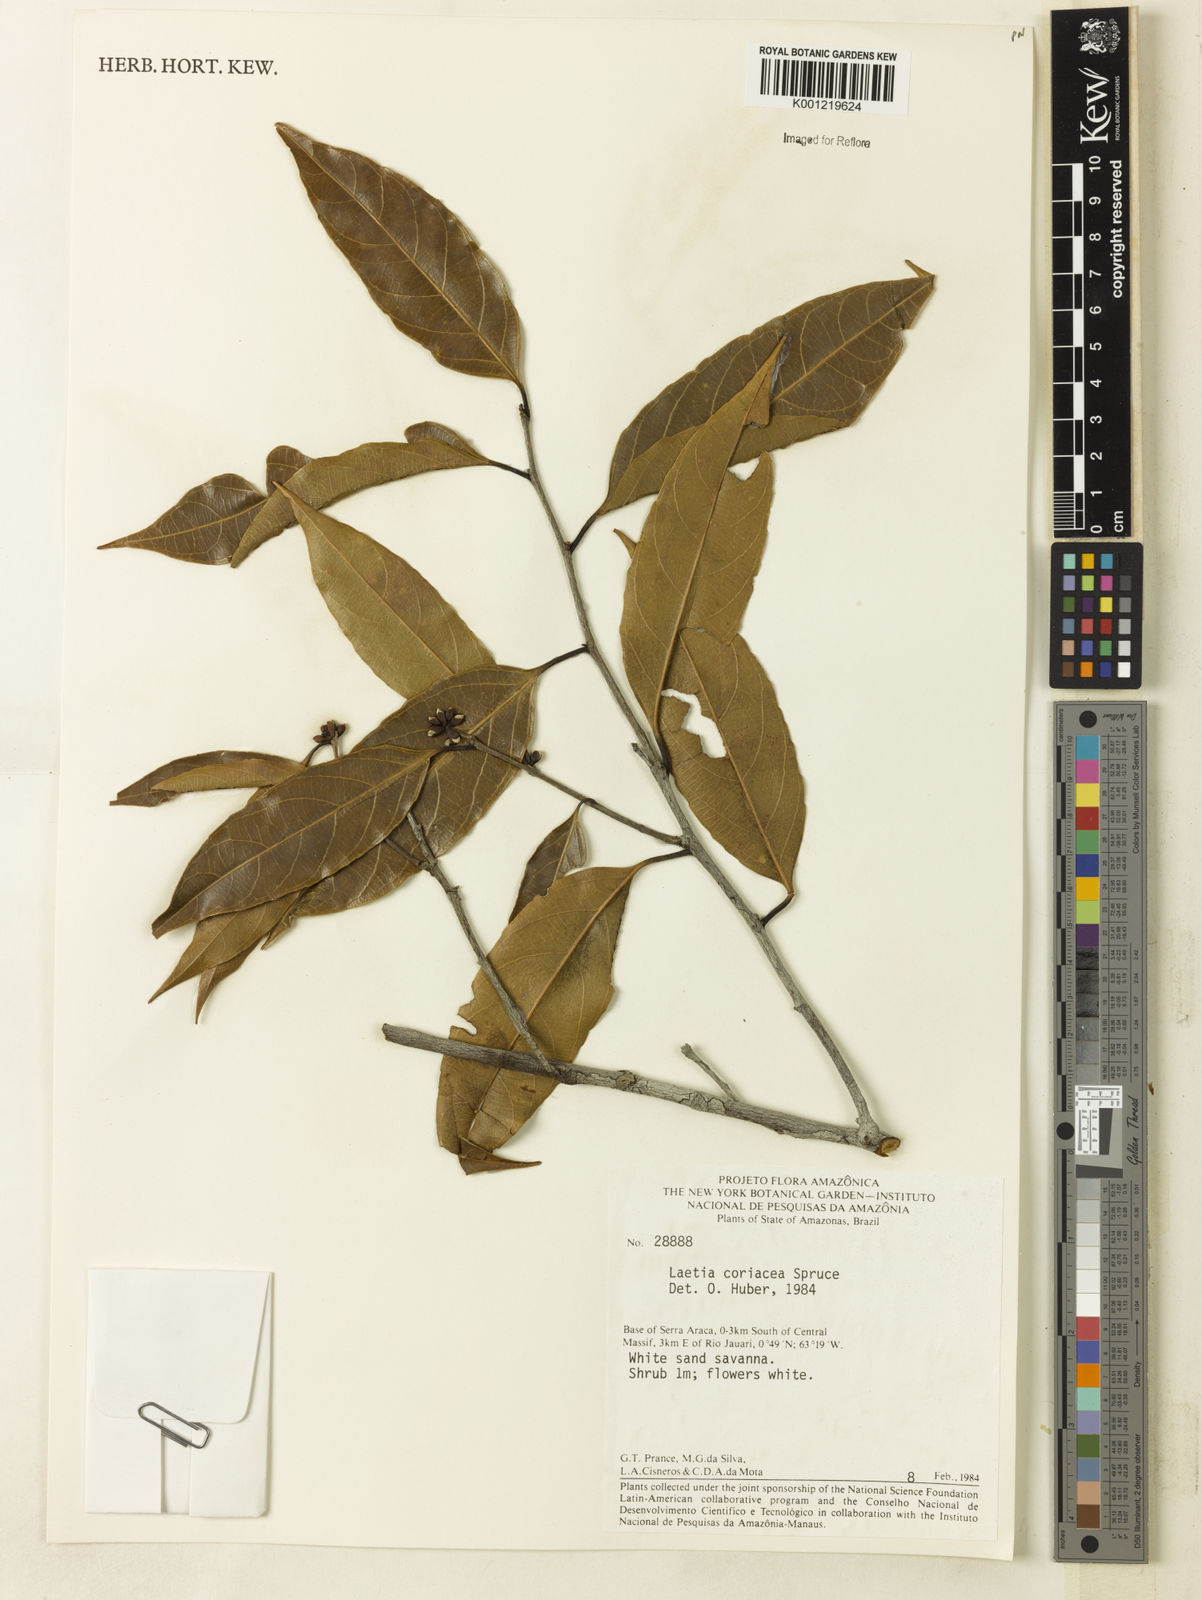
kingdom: Plantae
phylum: Tracheophyta
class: Magnoliopsida
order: Malpighiales
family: Salicaceae
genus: Irenodendron
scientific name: Irenodendron coriaceum
